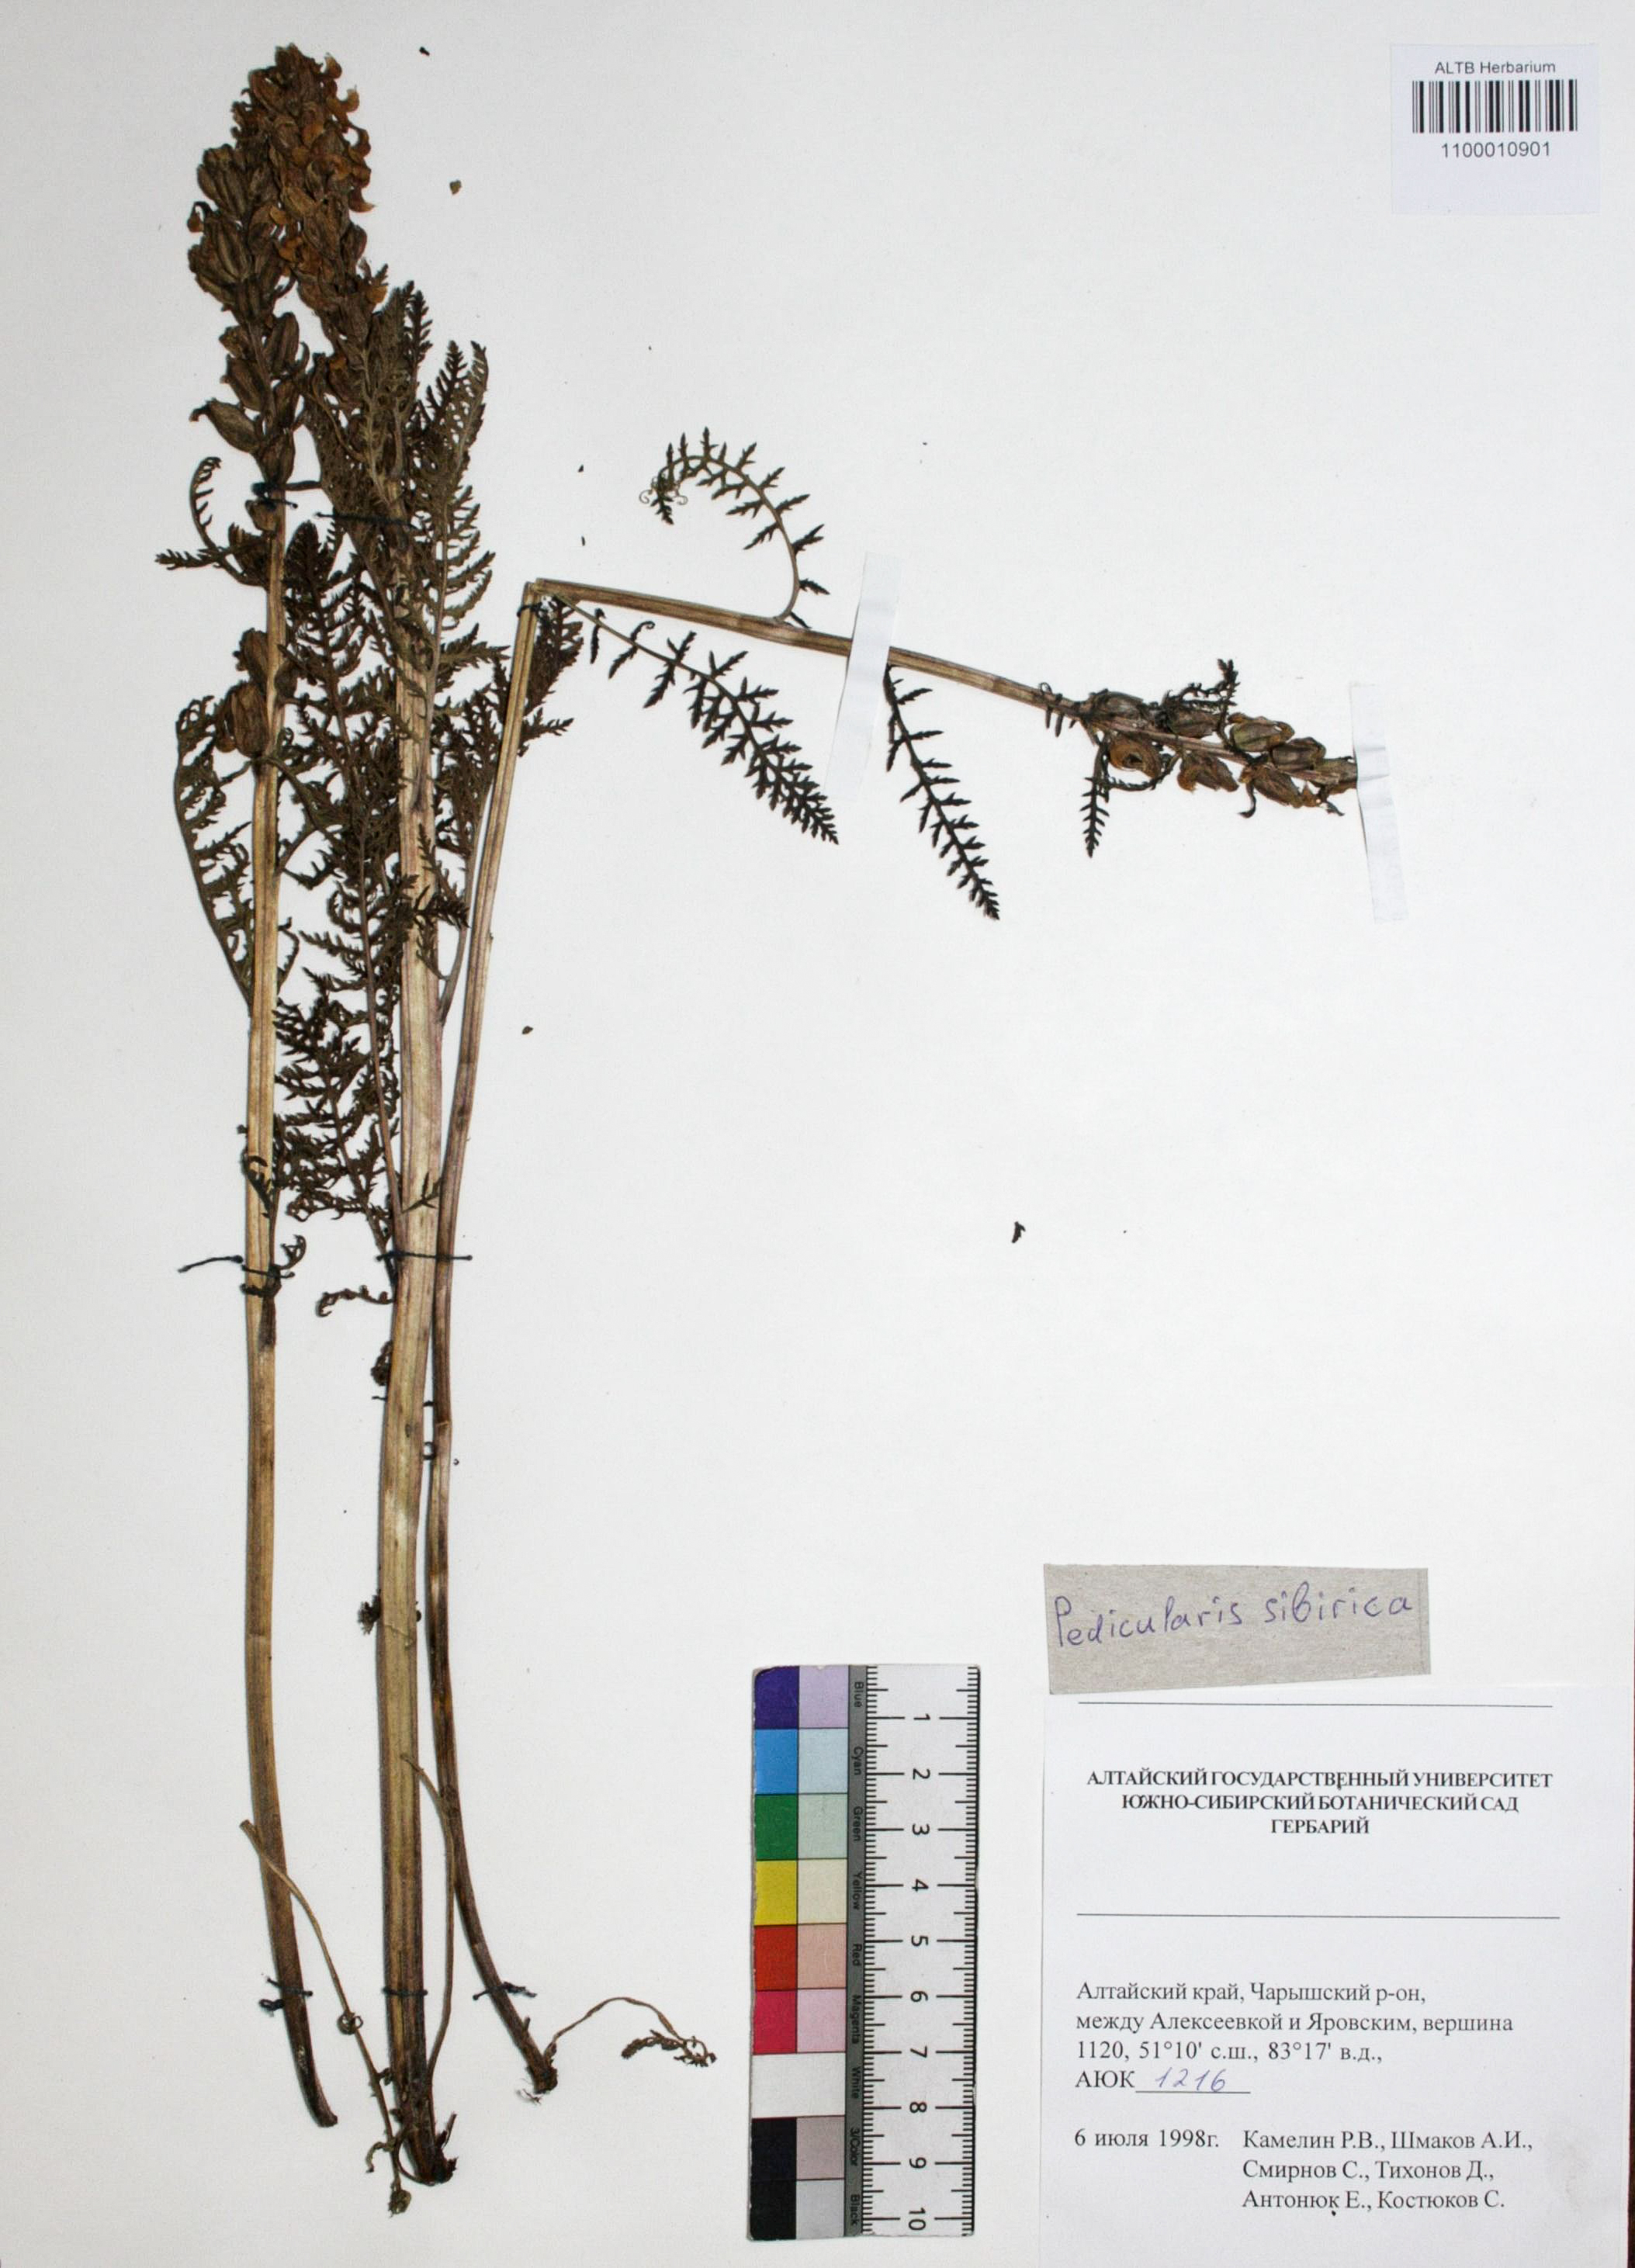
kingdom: Plantae
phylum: Tracheophyta
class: Magnoliopsida
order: Lamiales
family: Orobanchaceae
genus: Pedicularis
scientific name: Pedicularis sibirica
